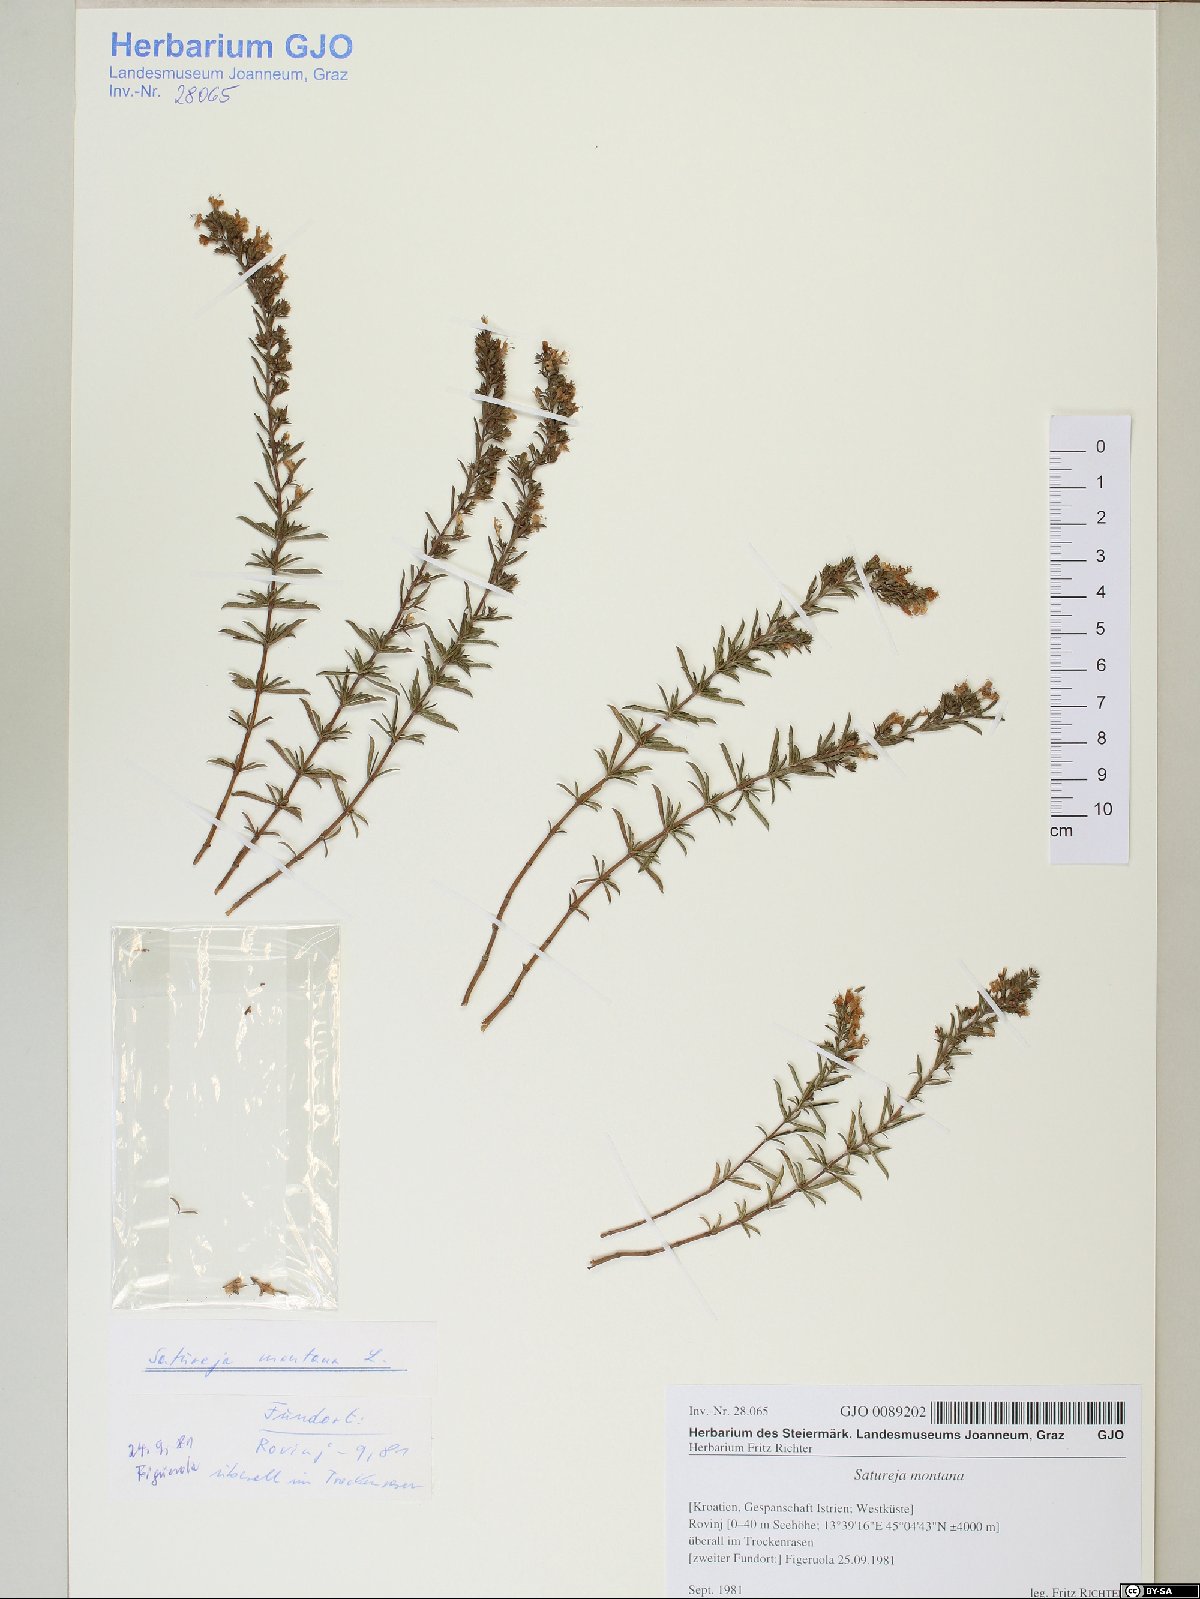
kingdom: Plantae
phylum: Tracheophyta
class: Magnoliopsida
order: Lamiales
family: Lamiaceae
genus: Satureja
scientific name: Satureja montana
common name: Winter savory
